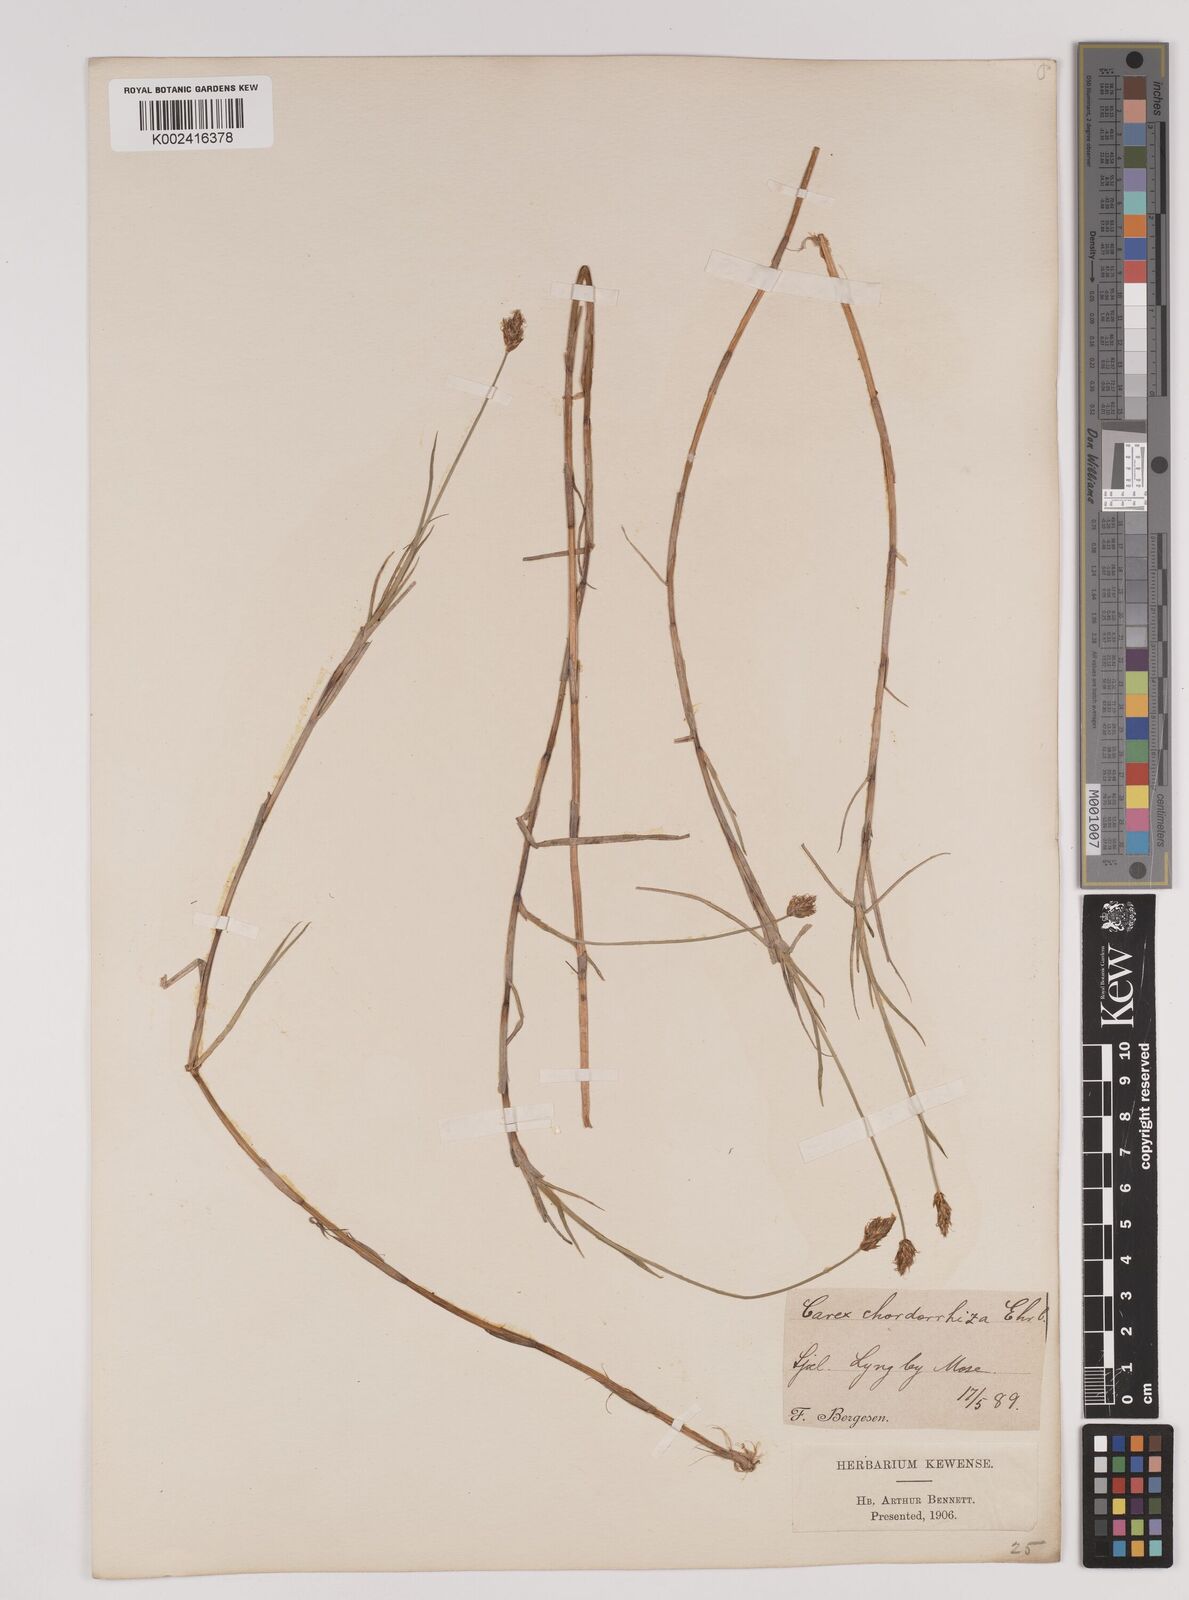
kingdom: Plantae
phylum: Tracheophyta
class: Liliopsida
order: Poales
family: Cyperaceae
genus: Carex
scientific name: Carex chordorrhiza
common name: String sedge
